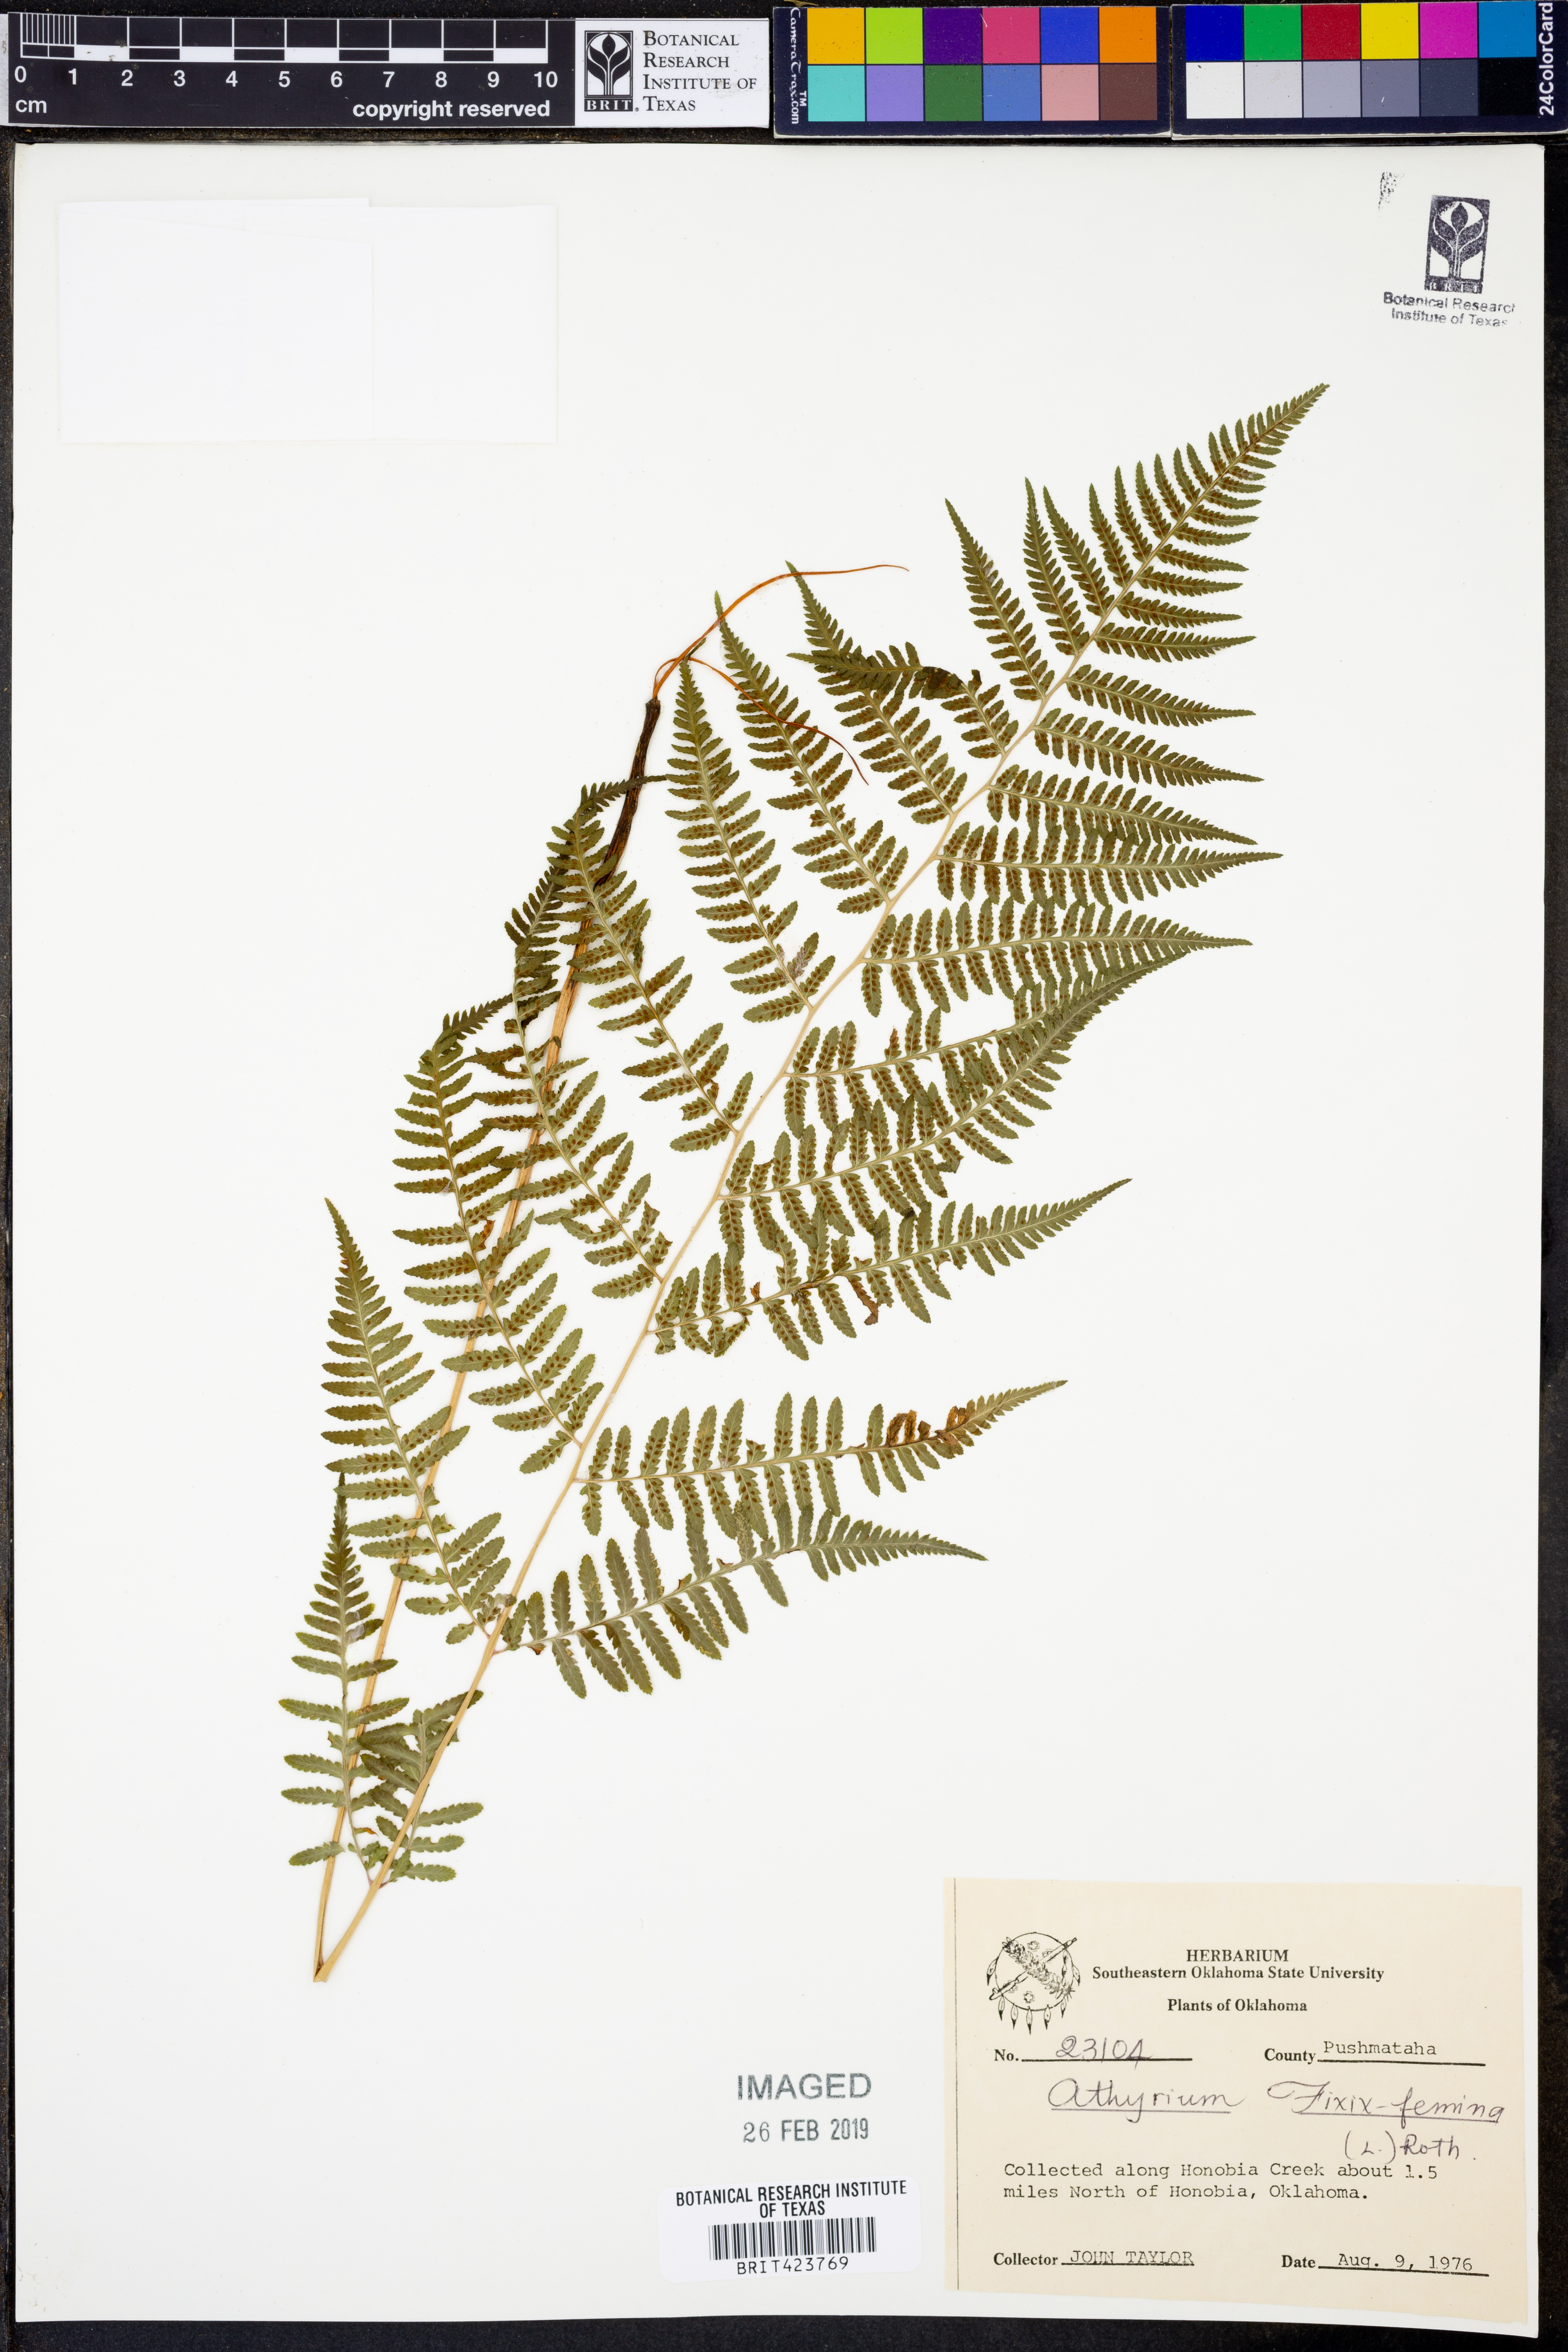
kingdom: Plantae
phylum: Tracheophyta
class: Polypodiopsida
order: Polypodiales
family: Athyriaceae
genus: Athyrium
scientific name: Athyrium filix-femina
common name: Lady fern
